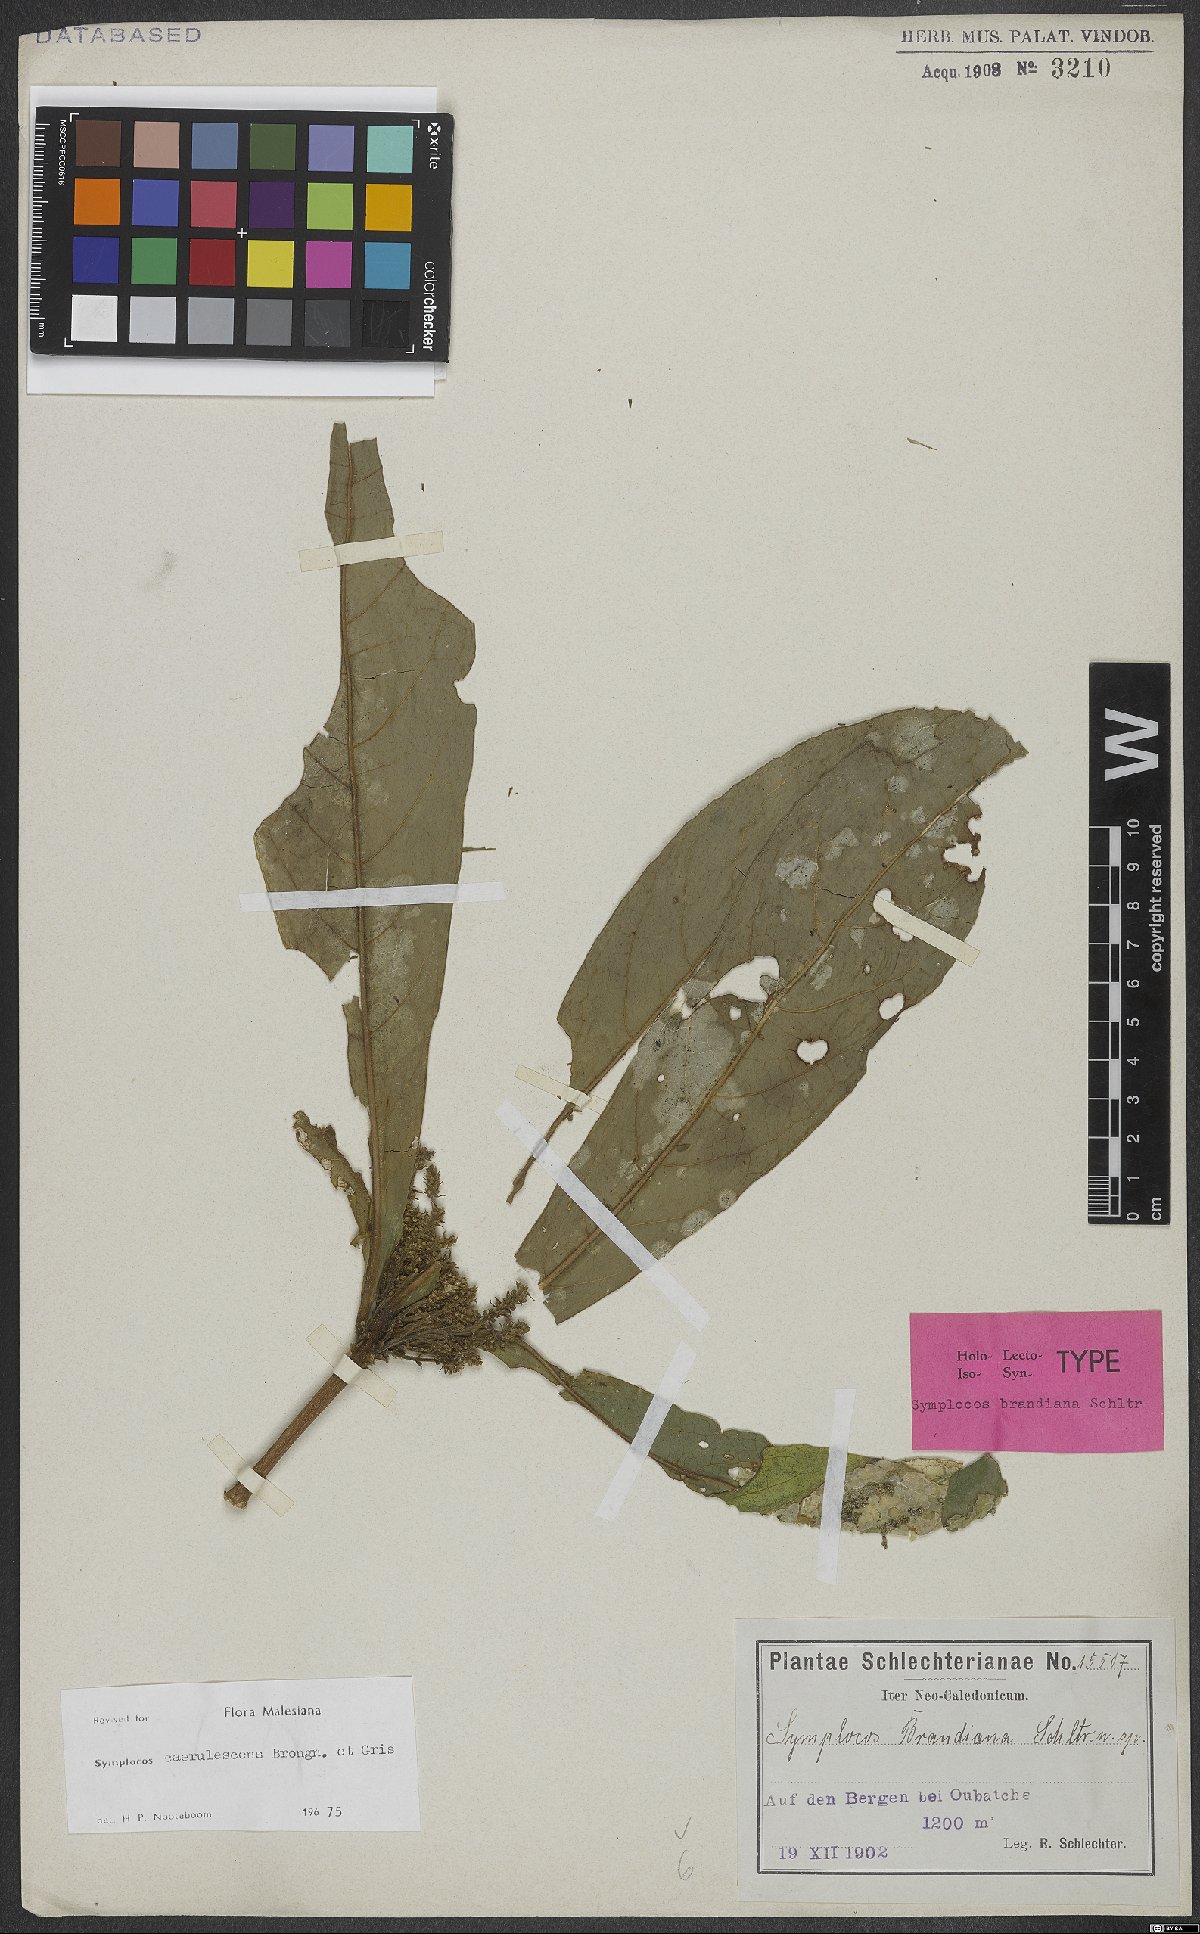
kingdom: Plantae
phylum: Tracheophyta
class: Magnoliopsida
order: Ericales
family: Symplocaceae
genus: Symplocos
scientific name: Symplocos caerulescens
